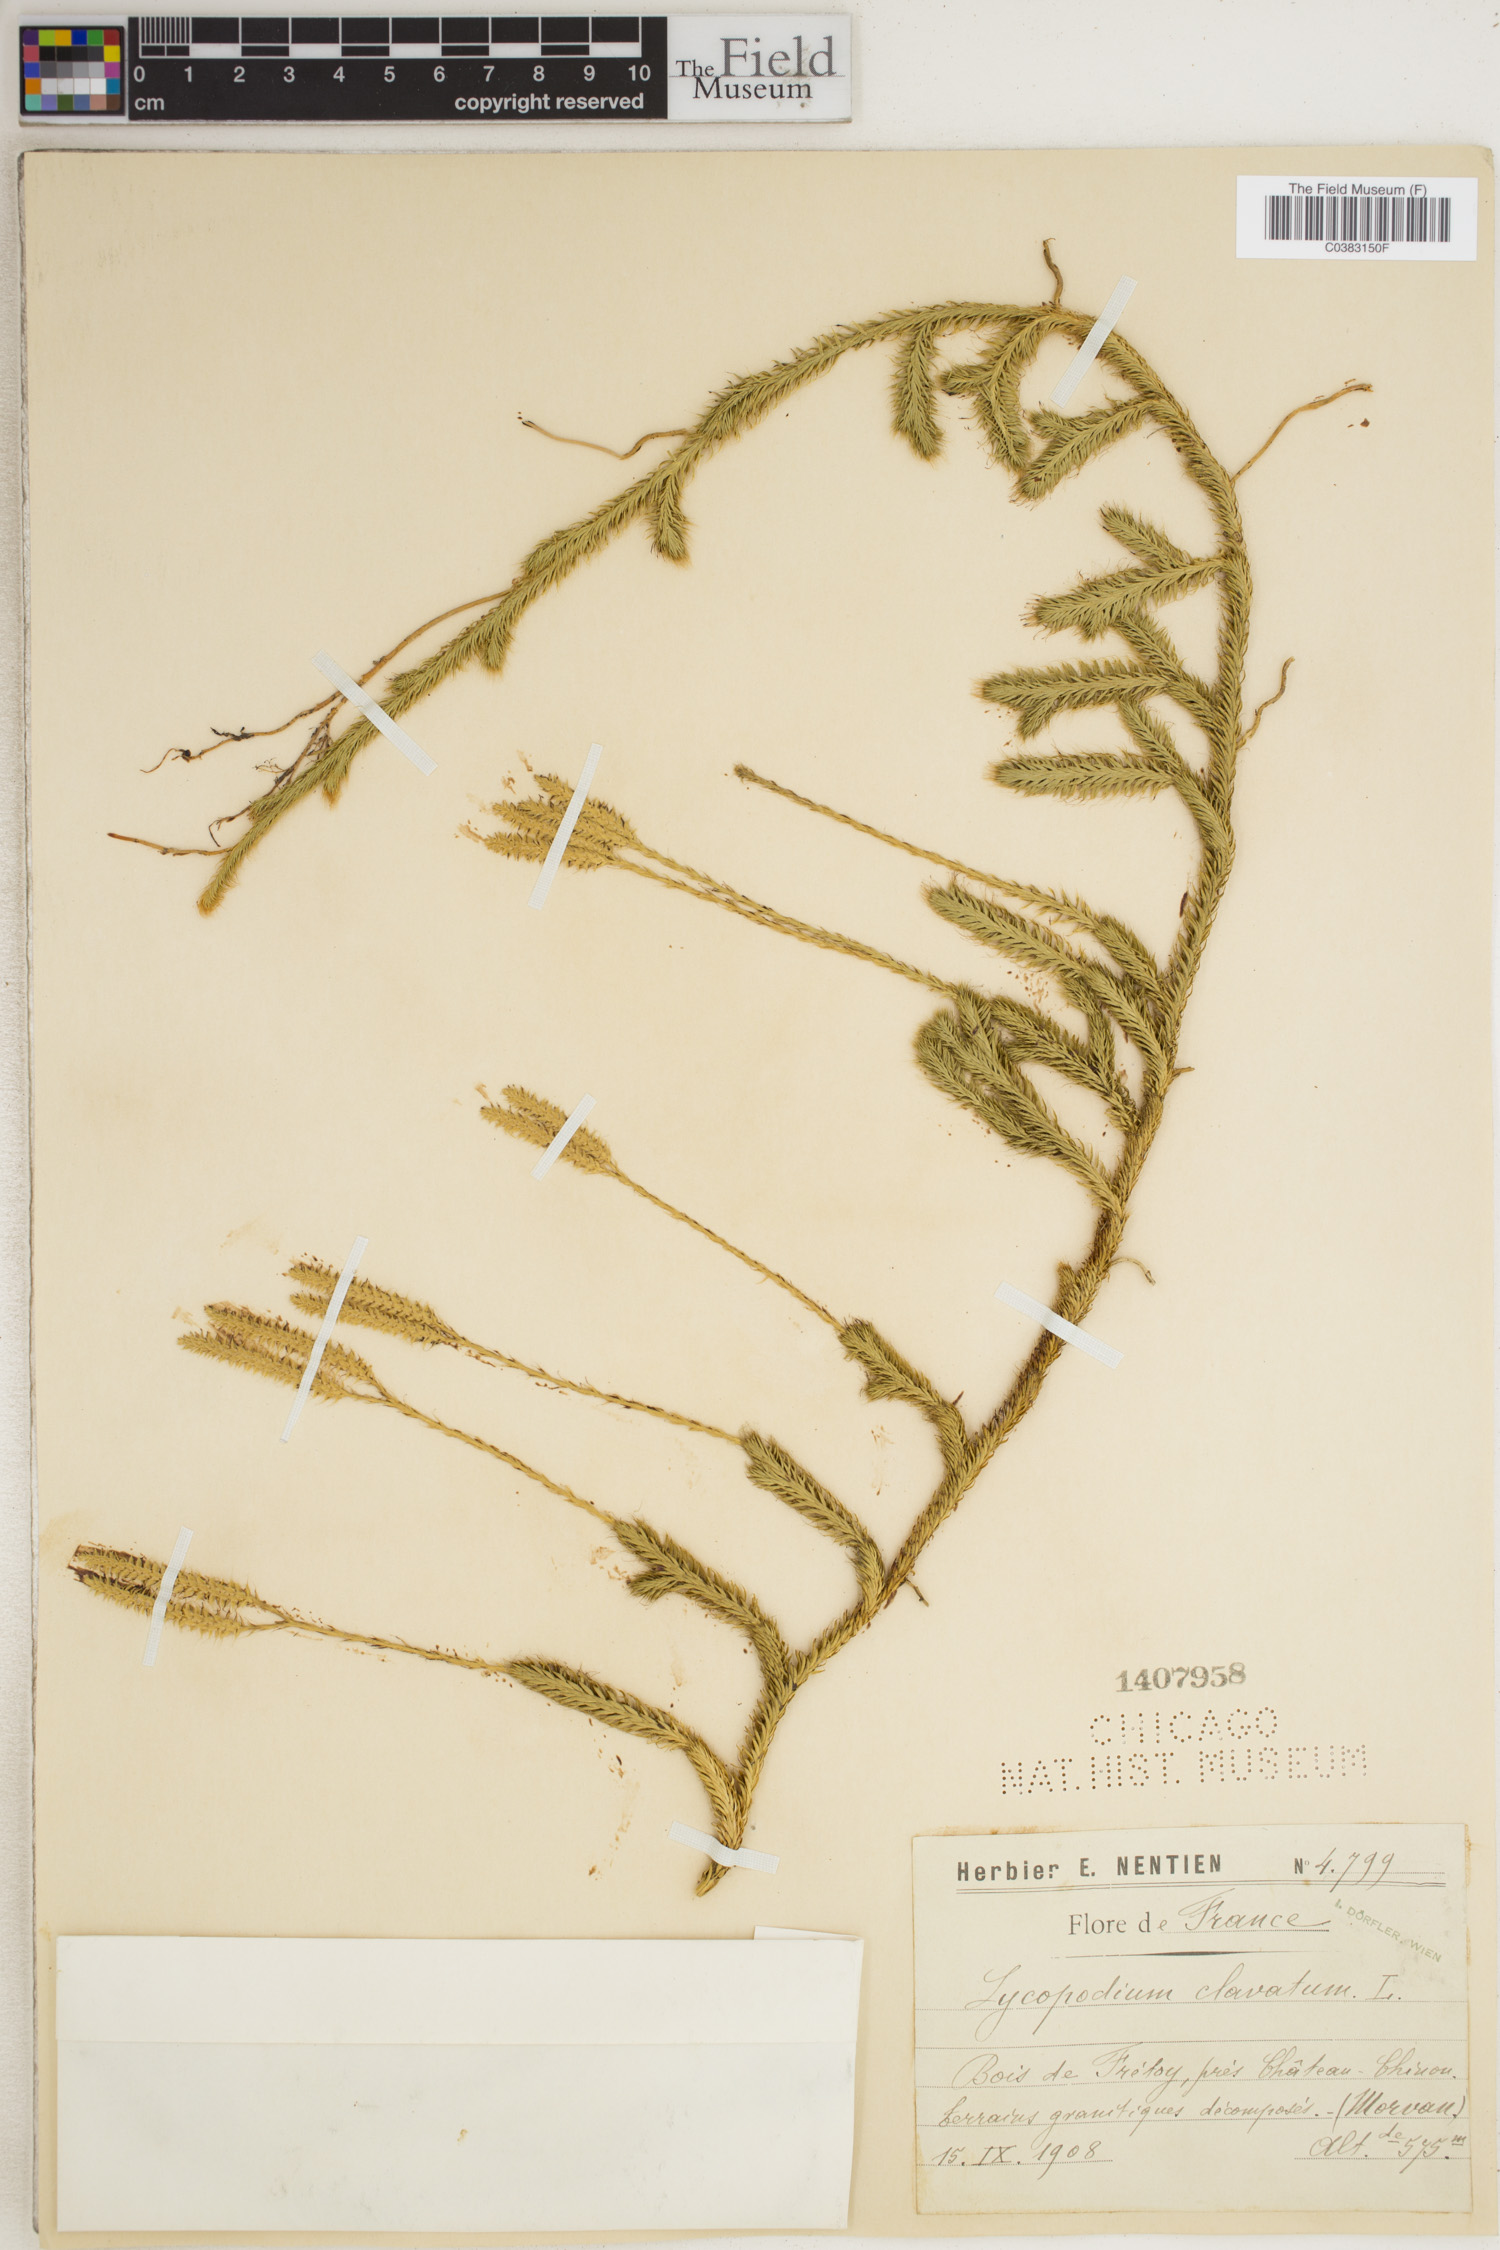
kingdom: Plantae
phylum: Tracheophyta
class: Lycopodiopsida
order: Lycopodiales
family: Lycopodiaceae
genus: Lycopodium
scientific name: Lycopodium clavatum
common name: Stag's-horn clubmoss
